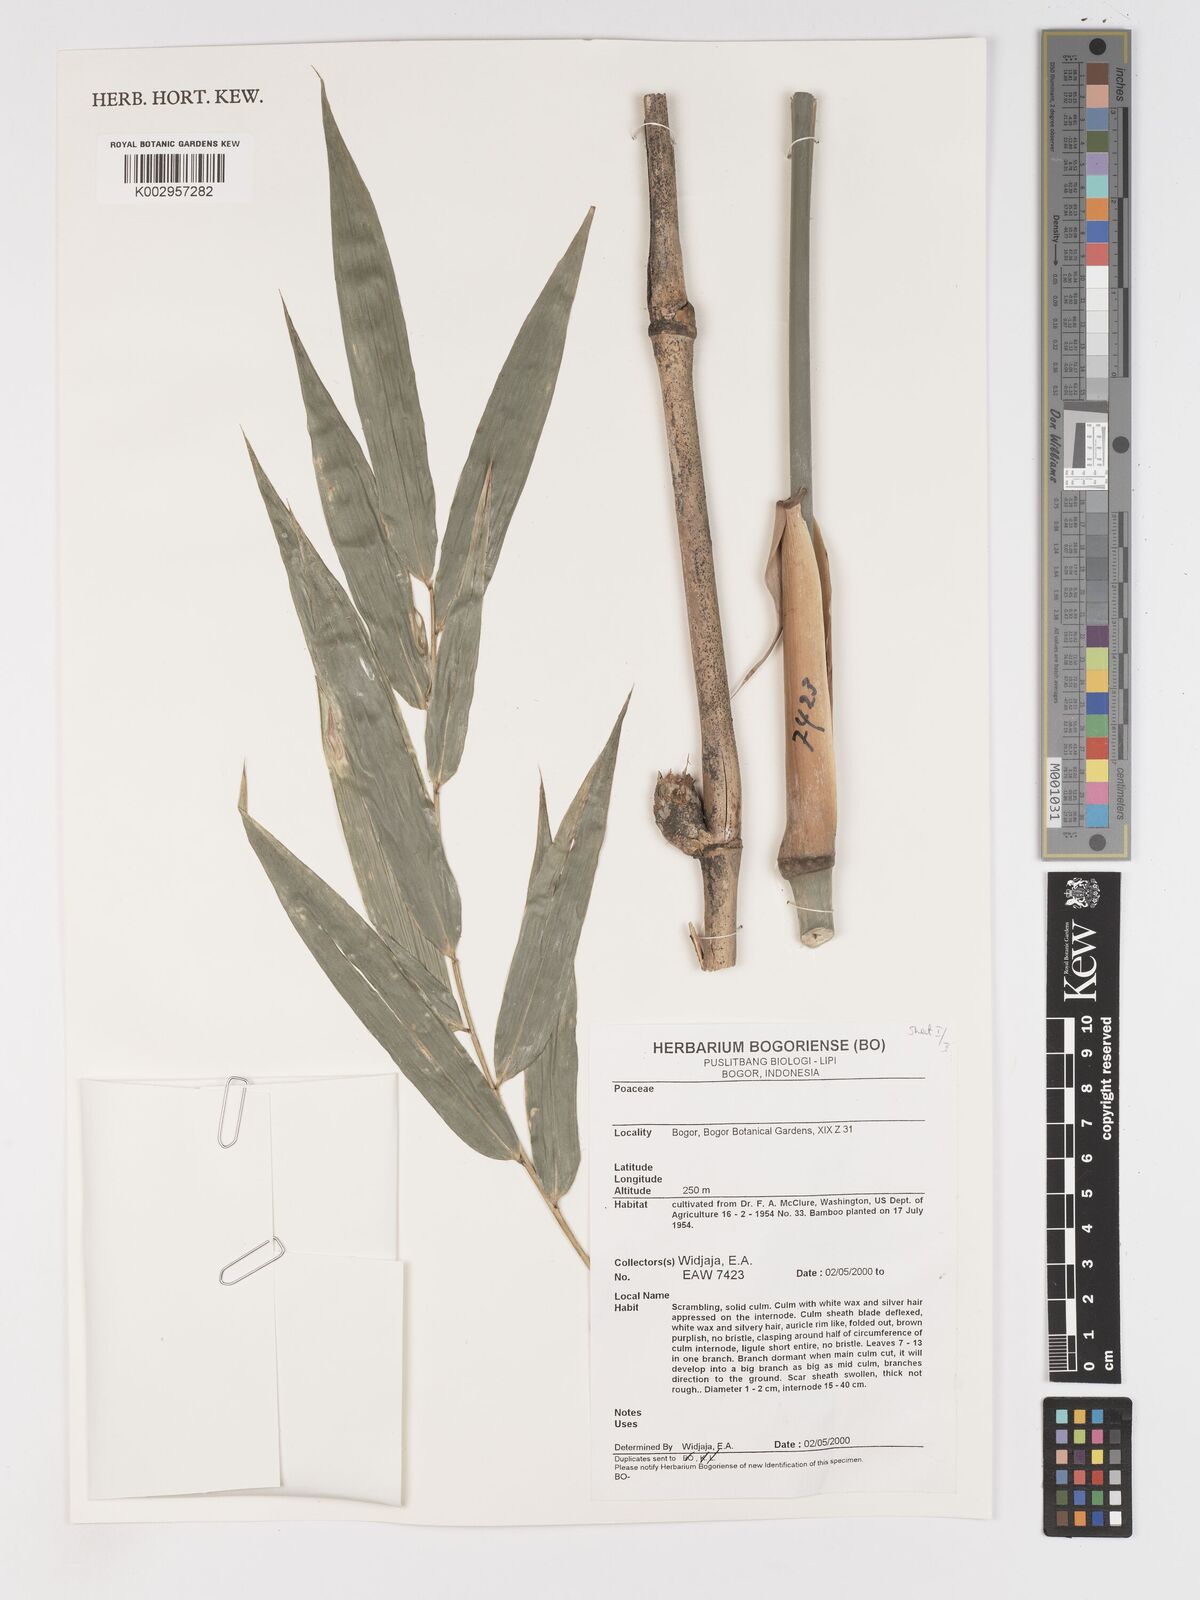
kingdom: Plantae
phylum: Tracheophyta
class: Liliopsida
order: Poales
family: Poaceae
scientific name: Poaceae
